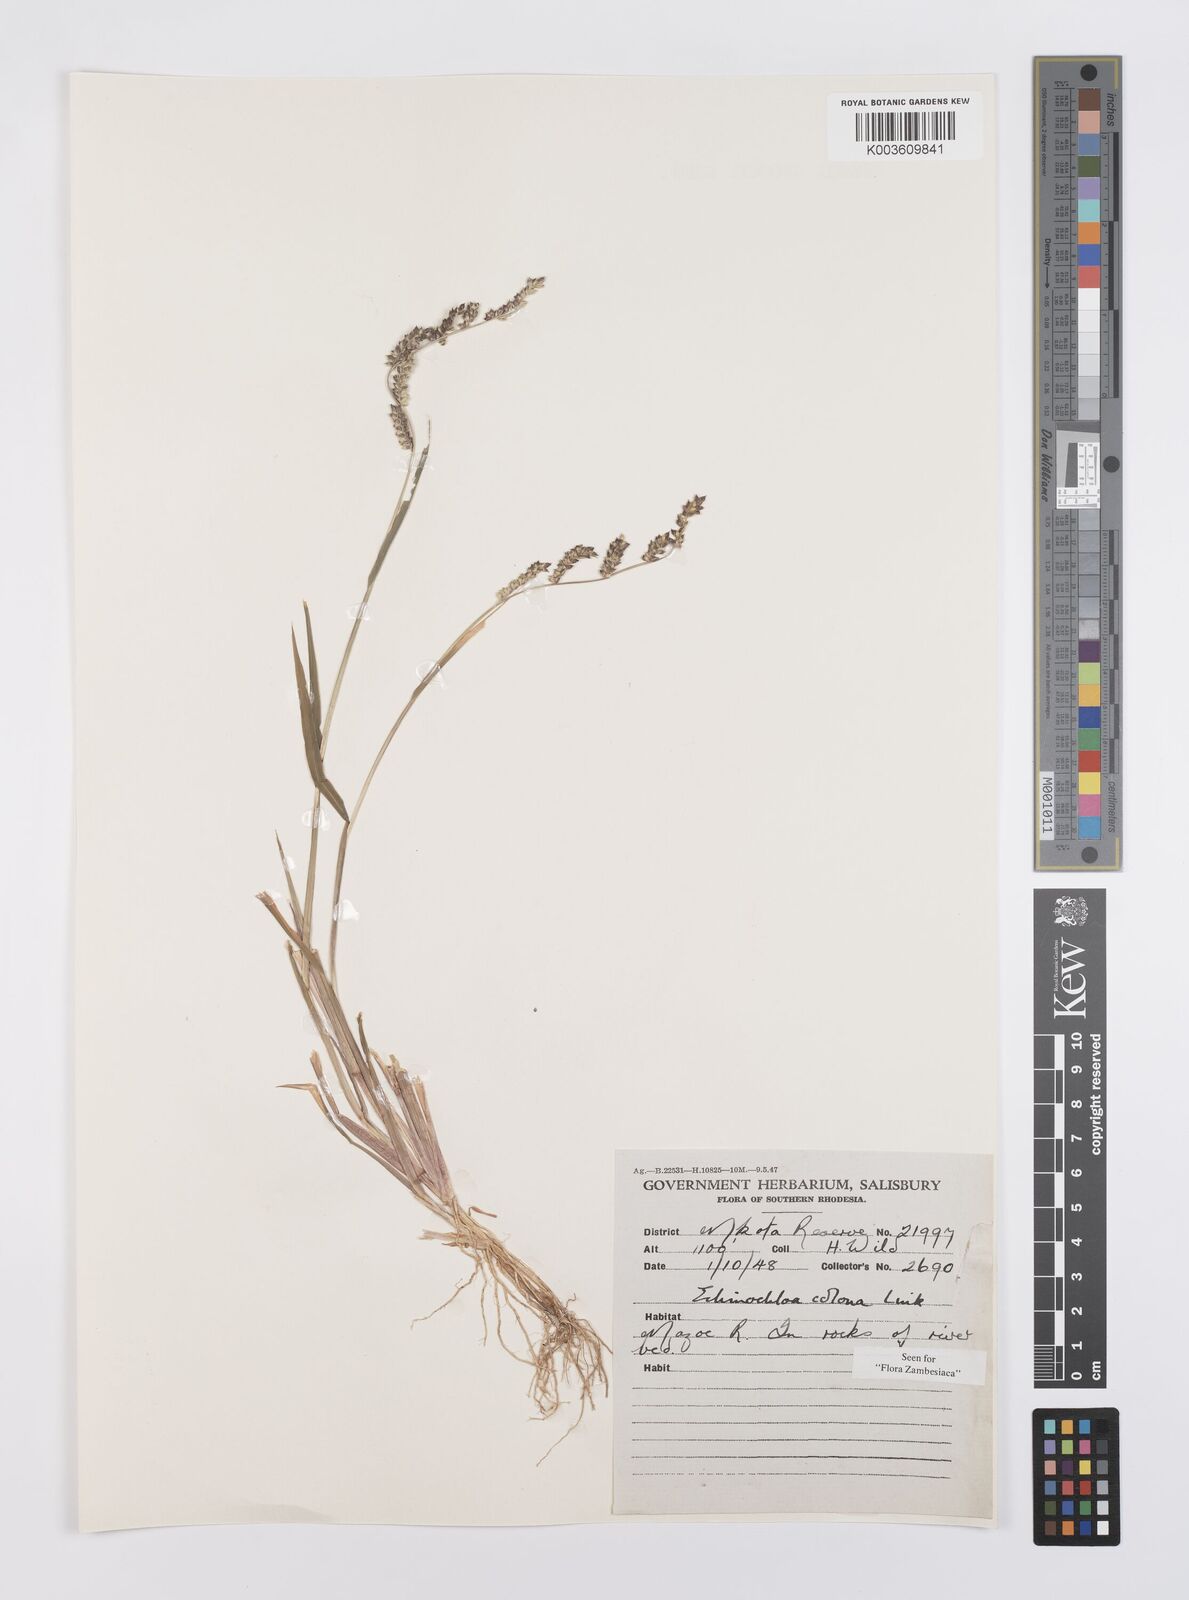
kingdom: Plantae
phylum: Tracheophyta
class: Liliopsida
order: Poales
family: Poaceae
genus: Echinochloa
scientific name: Echinochloa colonum
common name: Jungle rice
